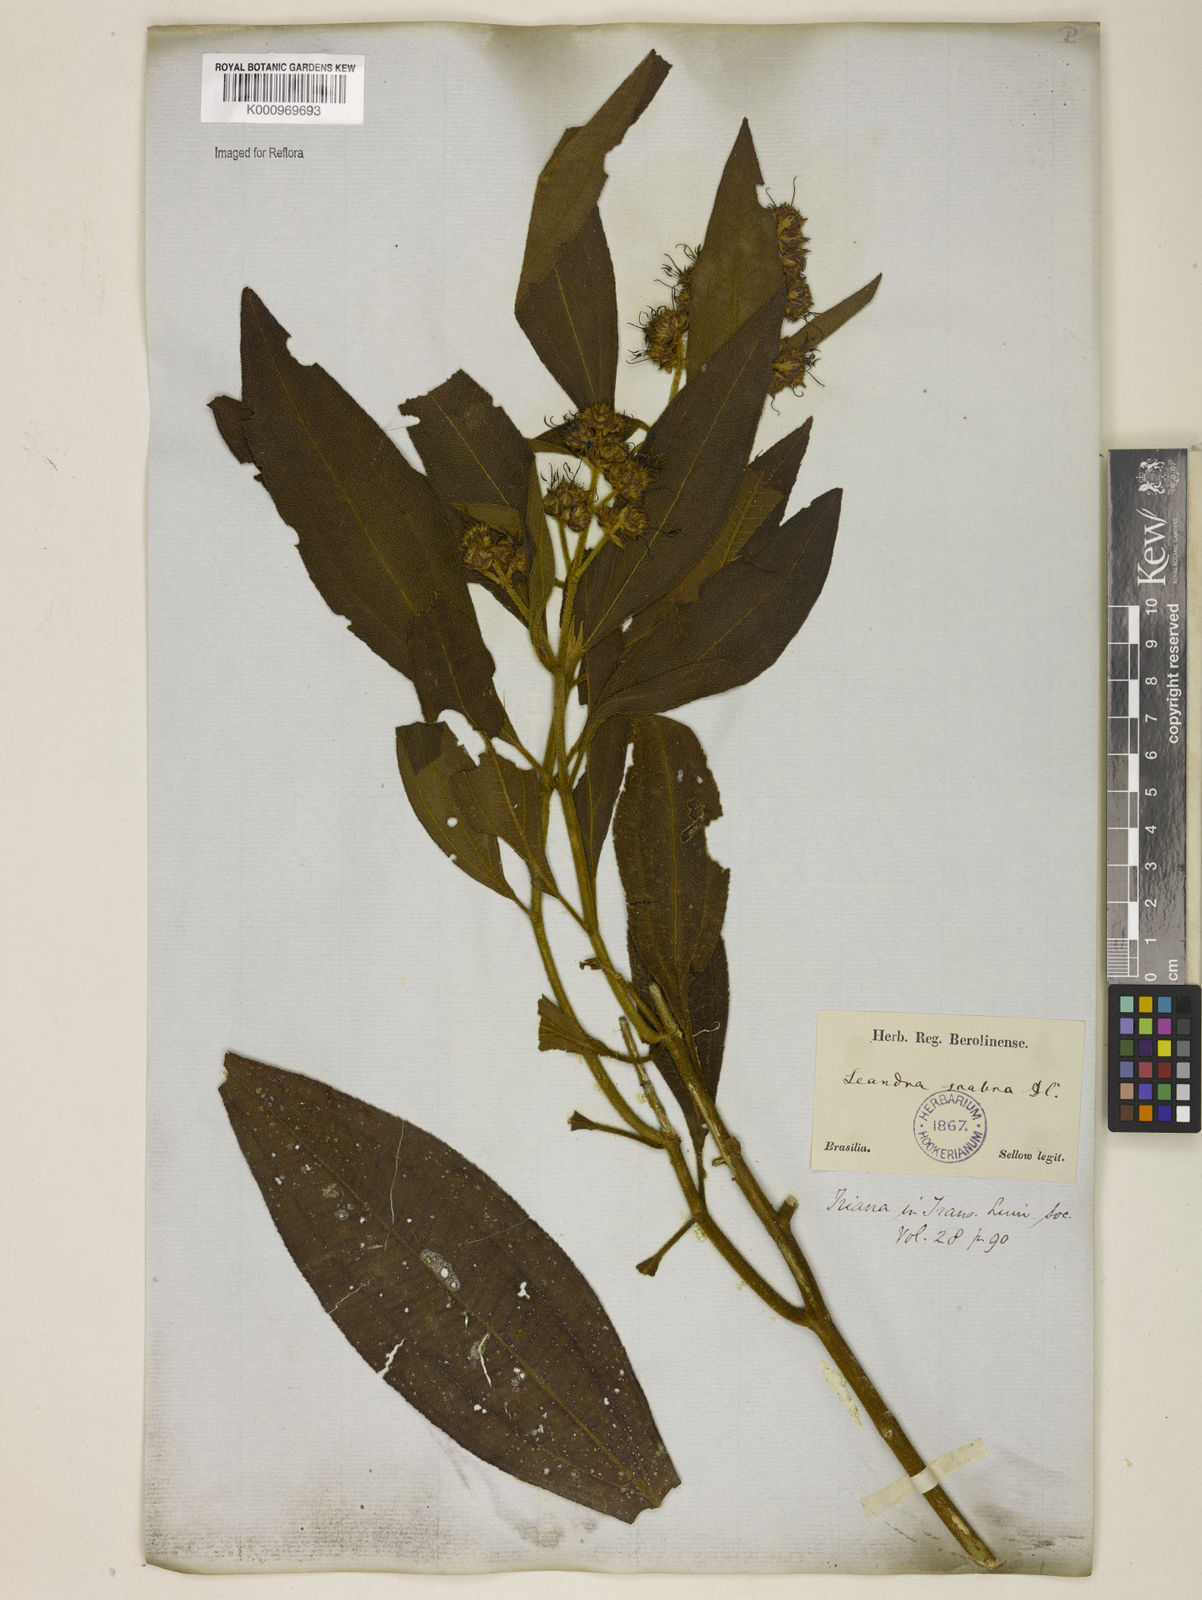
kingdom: Plantae
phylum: Tracheophyta
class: Magnoliopsida
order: Myrtales
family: Melastomataceae
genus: Miconia
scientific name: Miconia melastomoides
